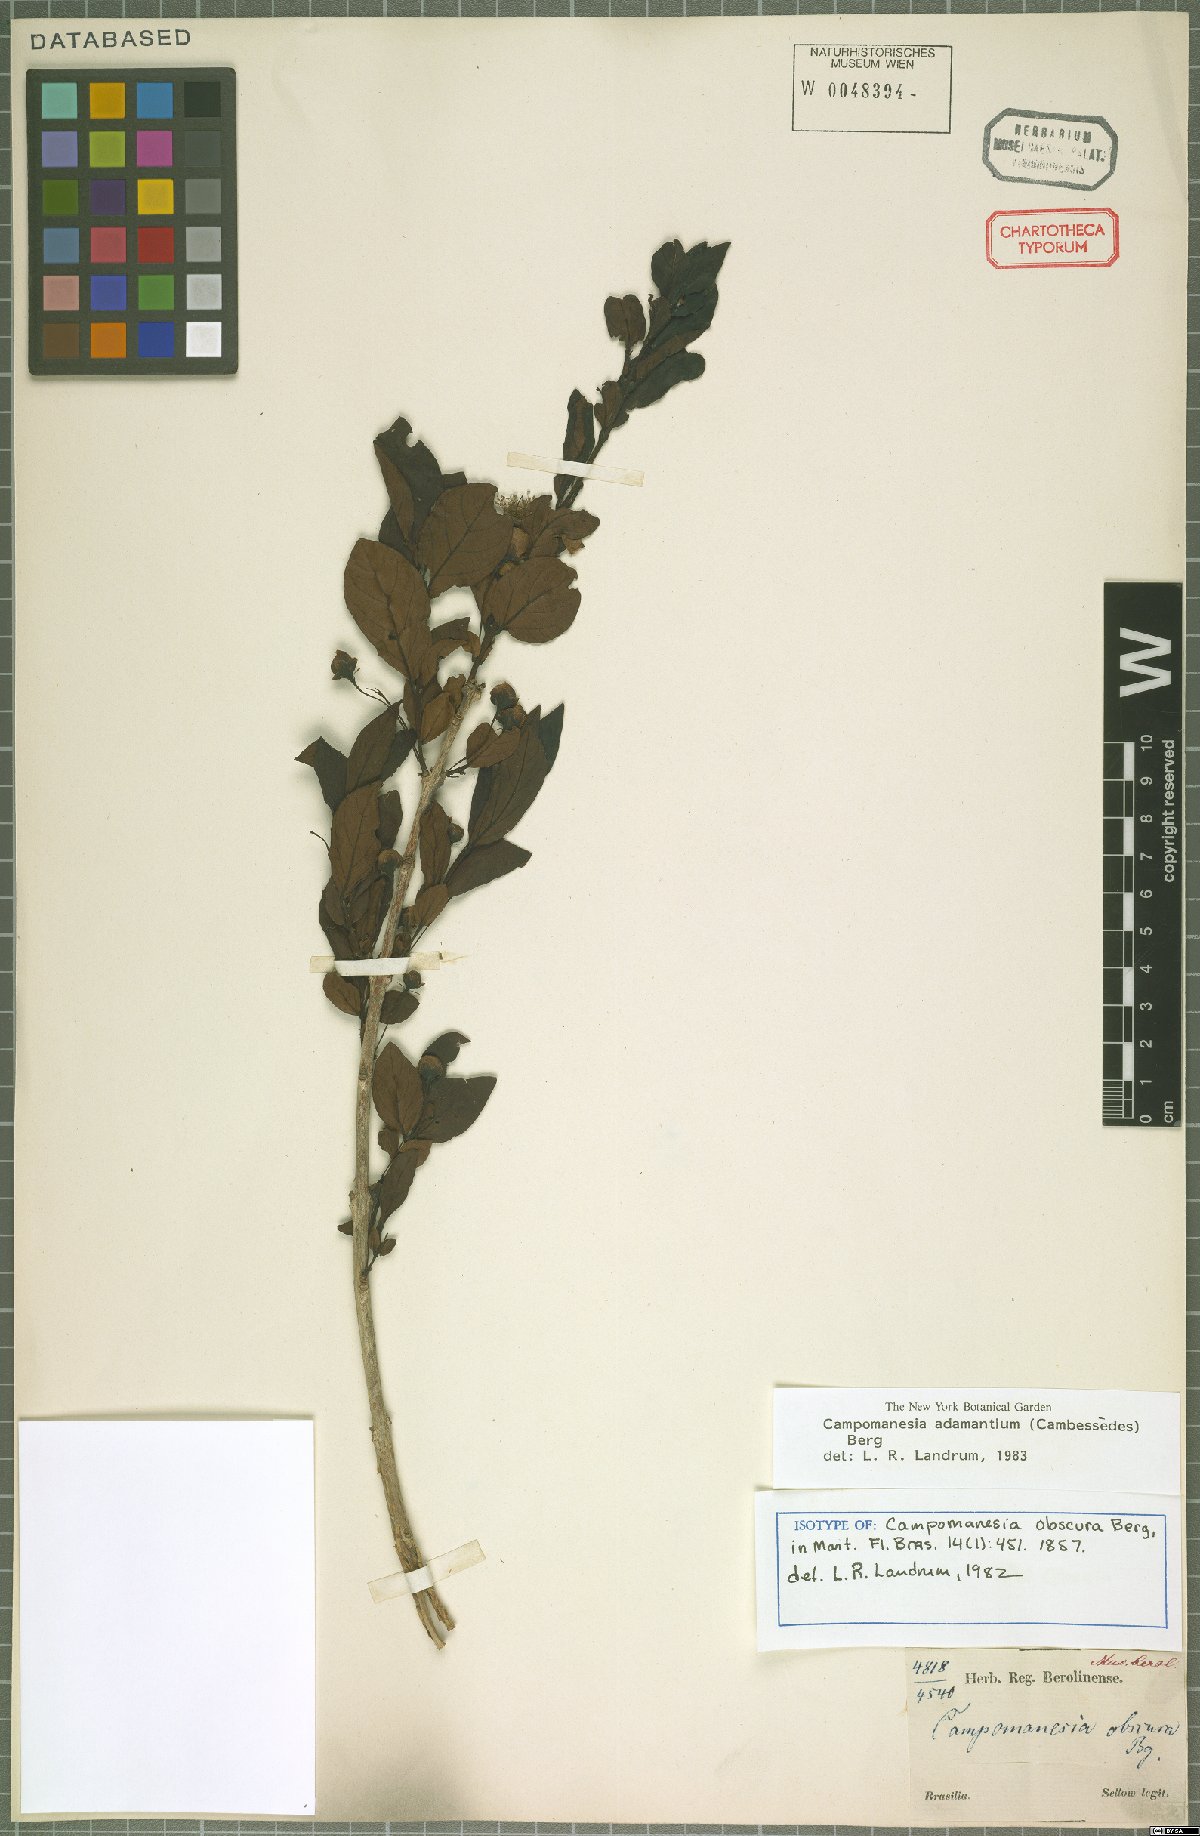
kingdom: Plantae
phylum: Tracheophyta
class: Magnoliopsida
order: Myrtales
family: Myrtaceae
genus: Campomanesia
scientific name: Campomanesia adamantium
